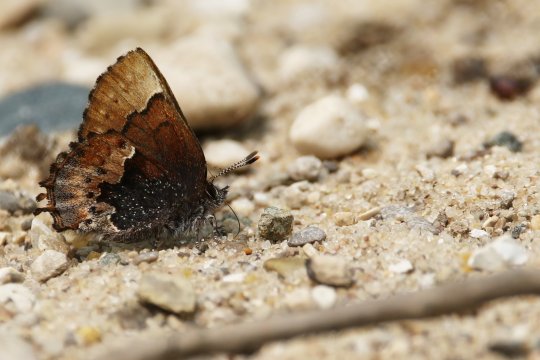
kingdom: Animalia
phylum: Arthropoda
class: Insecta
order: Lepidoptera
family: Lycaenidae
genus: Incisalia
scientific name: Incisalia henrici
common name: Henry's Elfin
